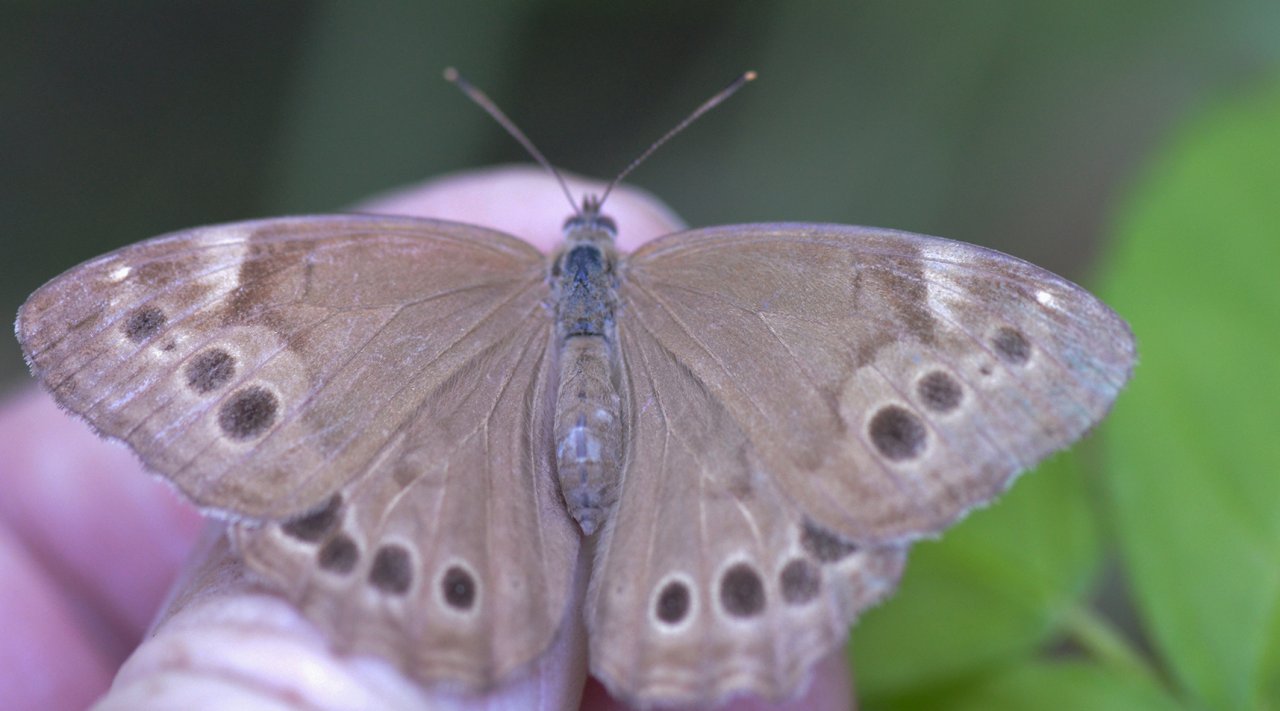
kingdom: Animalia
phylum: Arthropoda
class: Insecta
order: Lepidoptera
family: Nymphalidae
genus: Lethe
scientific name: Lethe anthedon
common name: Northern Pearly-Eye
